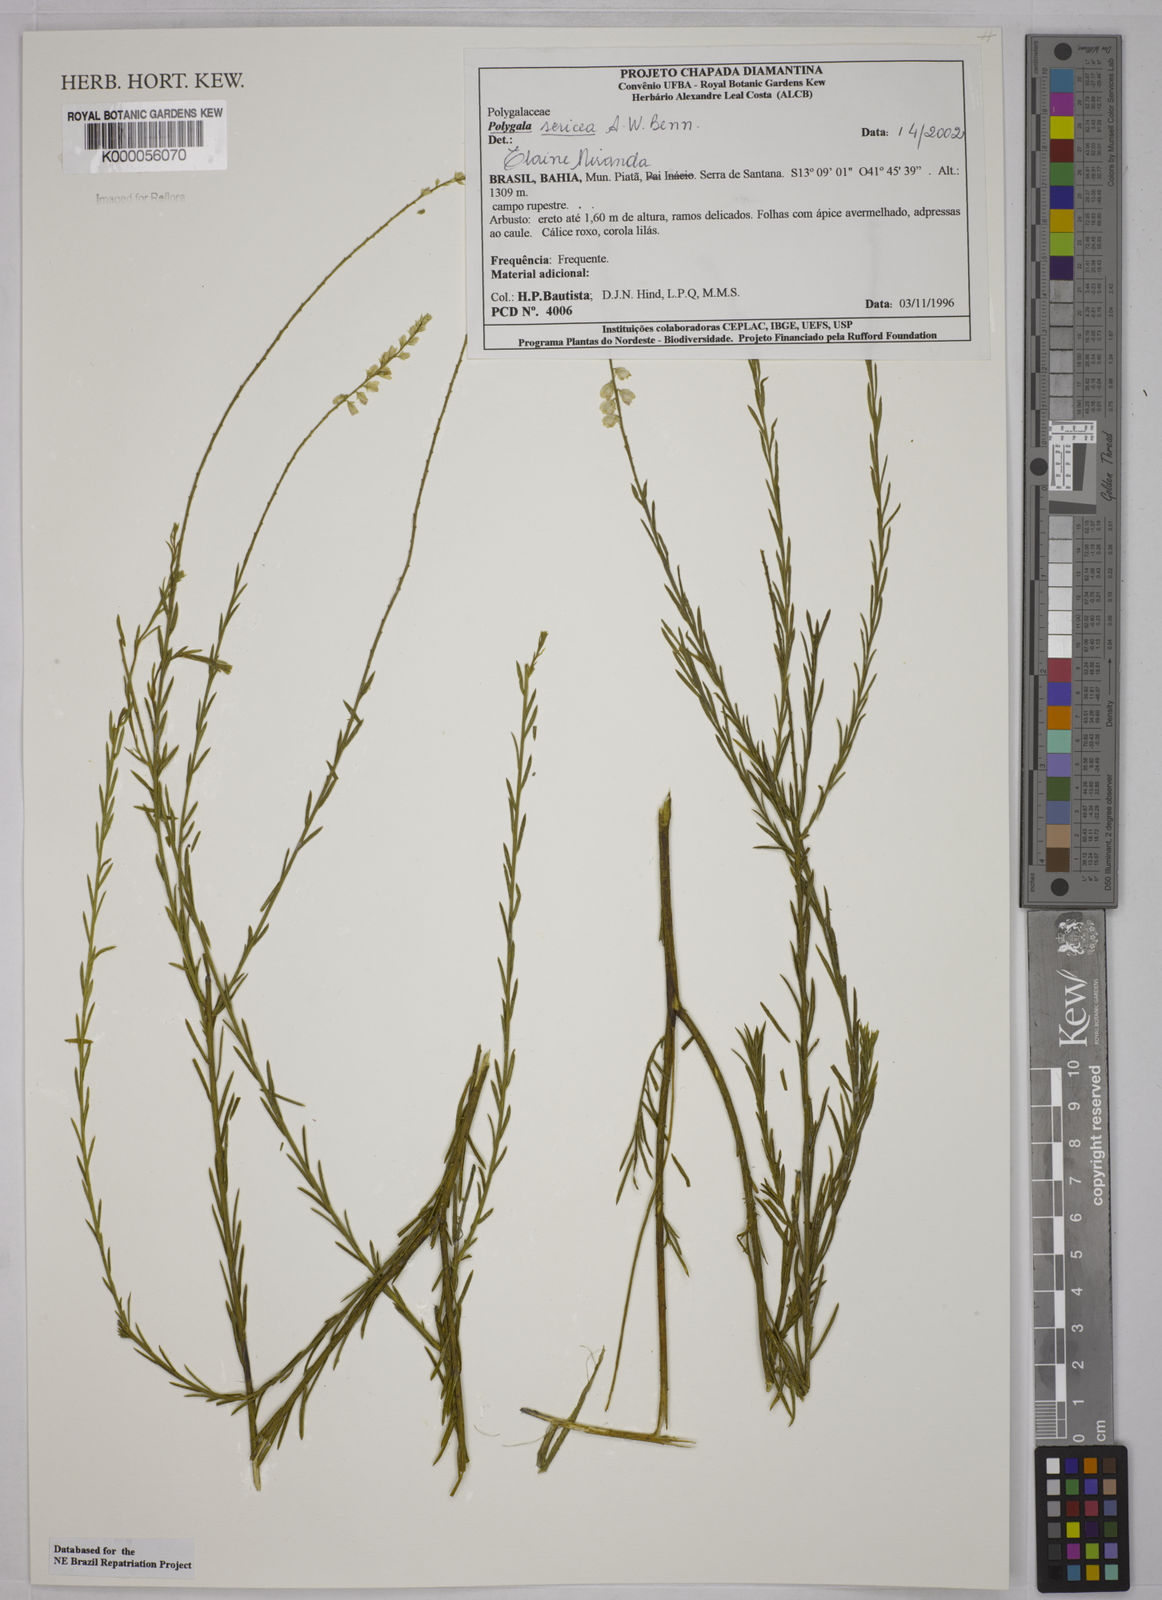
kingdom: Plantae
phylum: Tracheophyta
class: Magnoliopsida
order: Fabales
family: Polygalaceae
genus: Polygala
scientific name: Polygala sericea
